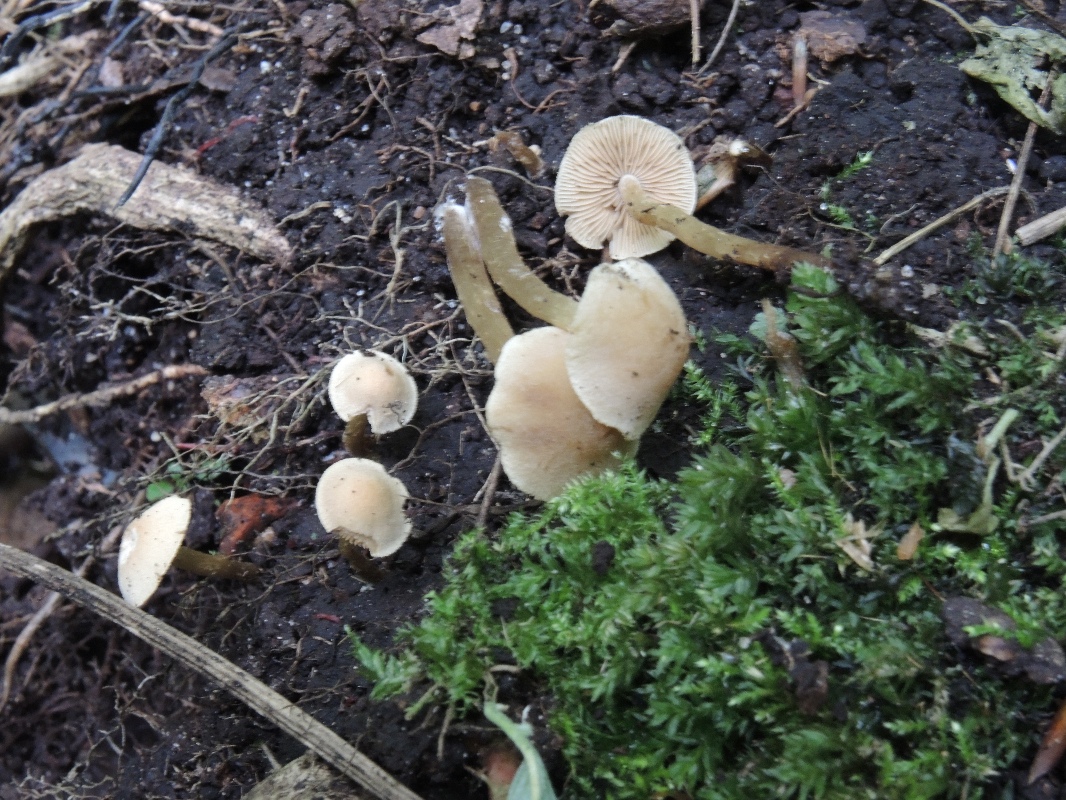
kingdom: Fungi
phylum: Basidiomycota
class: Agaricomycetes
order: Agaricales
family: Hymenogastraceae
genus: Naucoria
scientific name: Naucoria escharioides
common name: lys elle-knaphat
